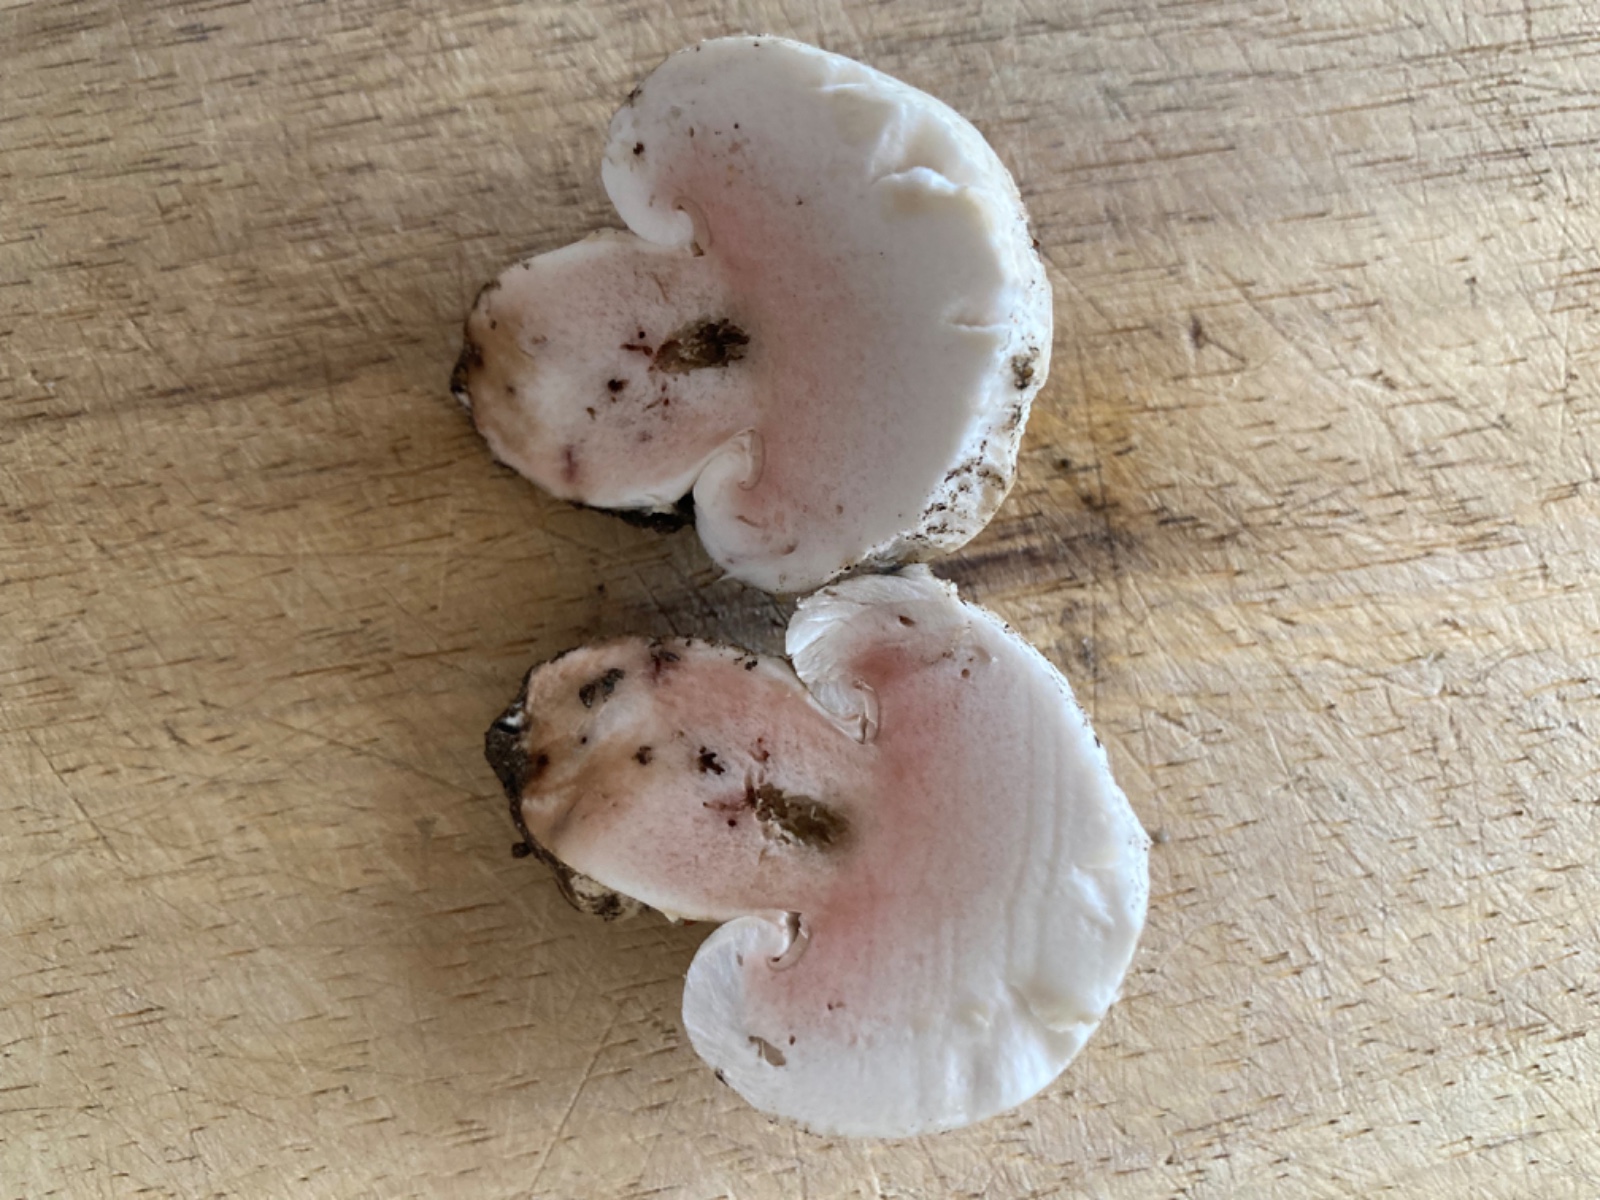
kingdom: Fungi
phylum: Basidiomycota
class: Agaricomycetes
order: Agaricales
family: Agaricaceae
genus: Agaricus
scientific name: Agaricus
